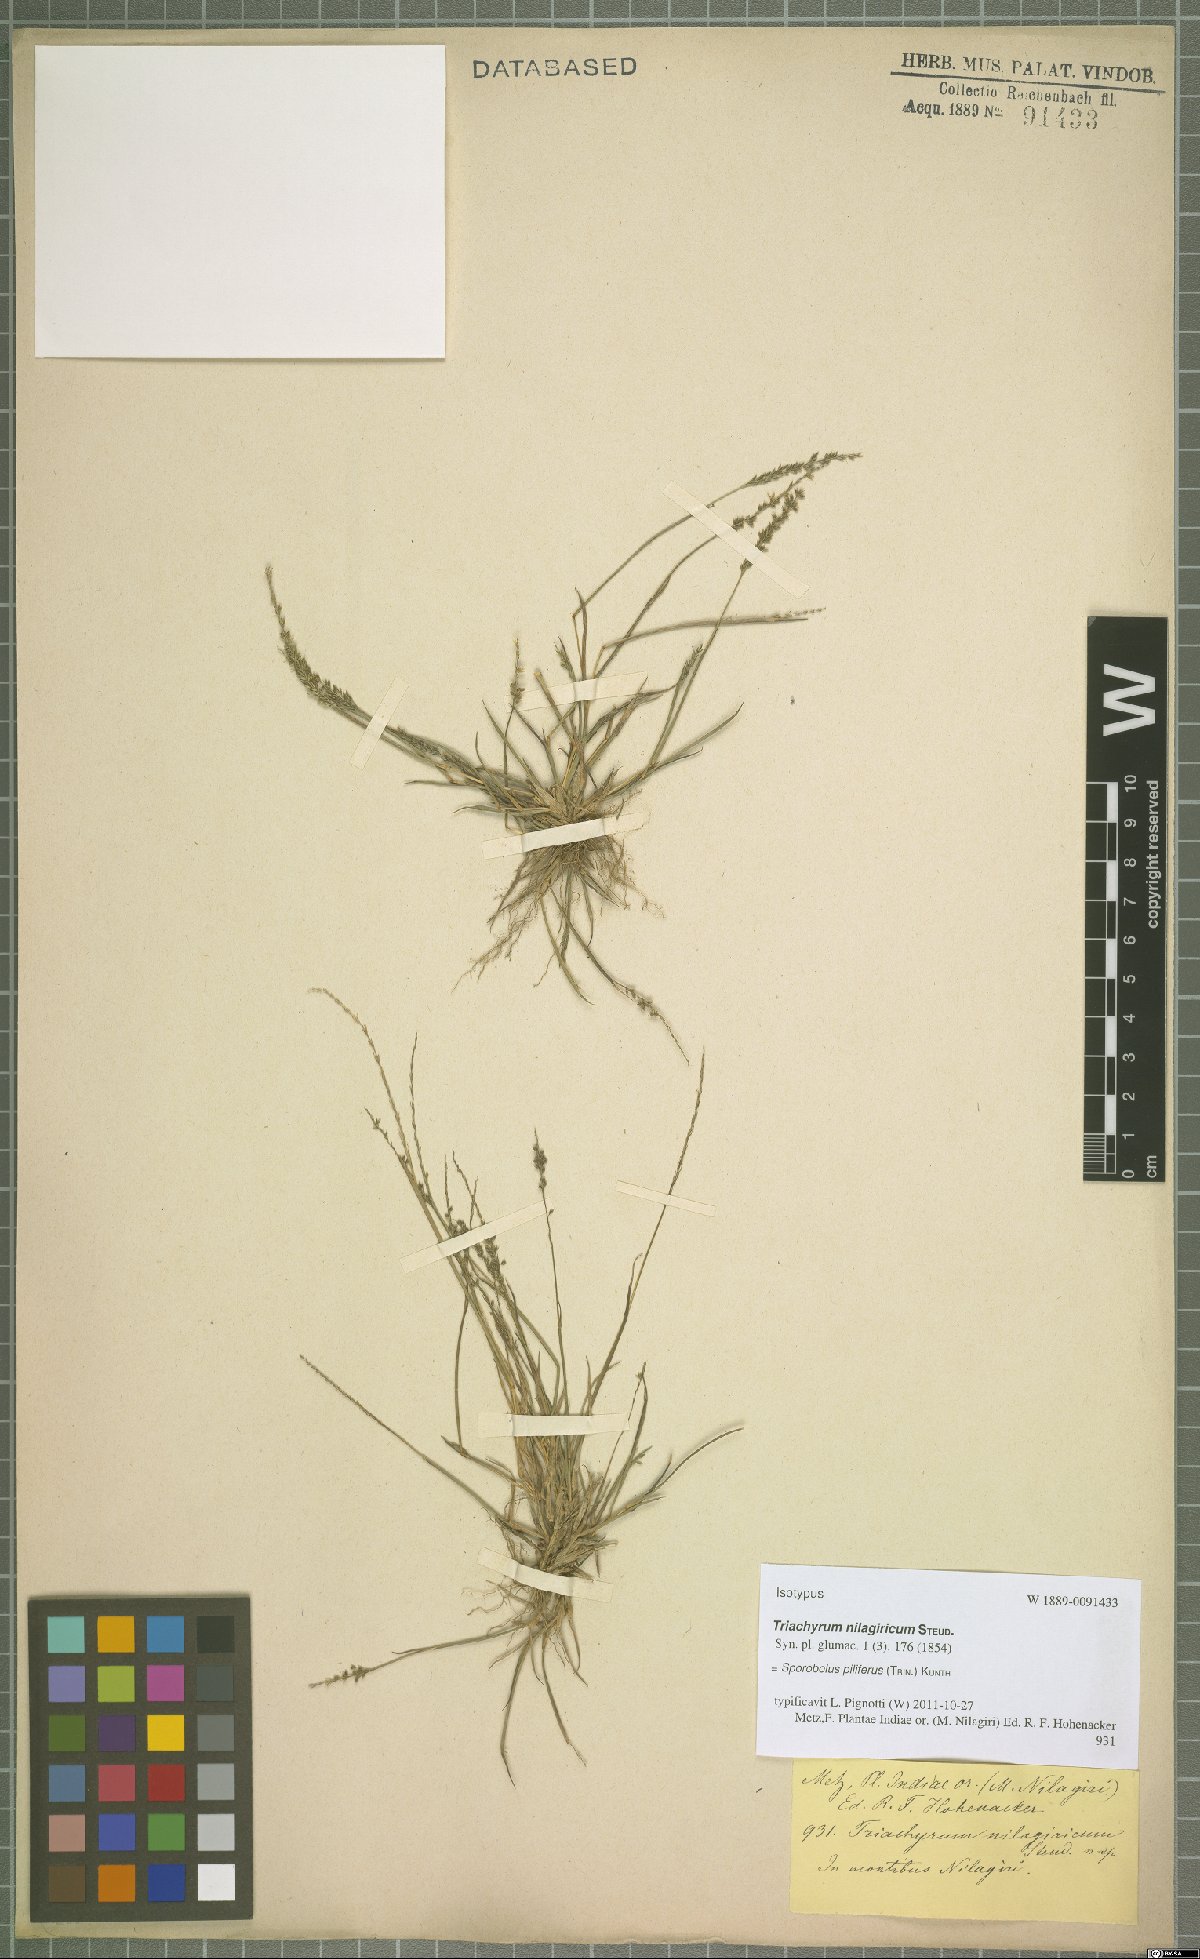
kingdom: Plantae
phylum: Tracheophyta
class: Liliopsida
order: Poales
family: Poaceae
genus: Sporobolus
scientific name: Sporobolus pilifer
